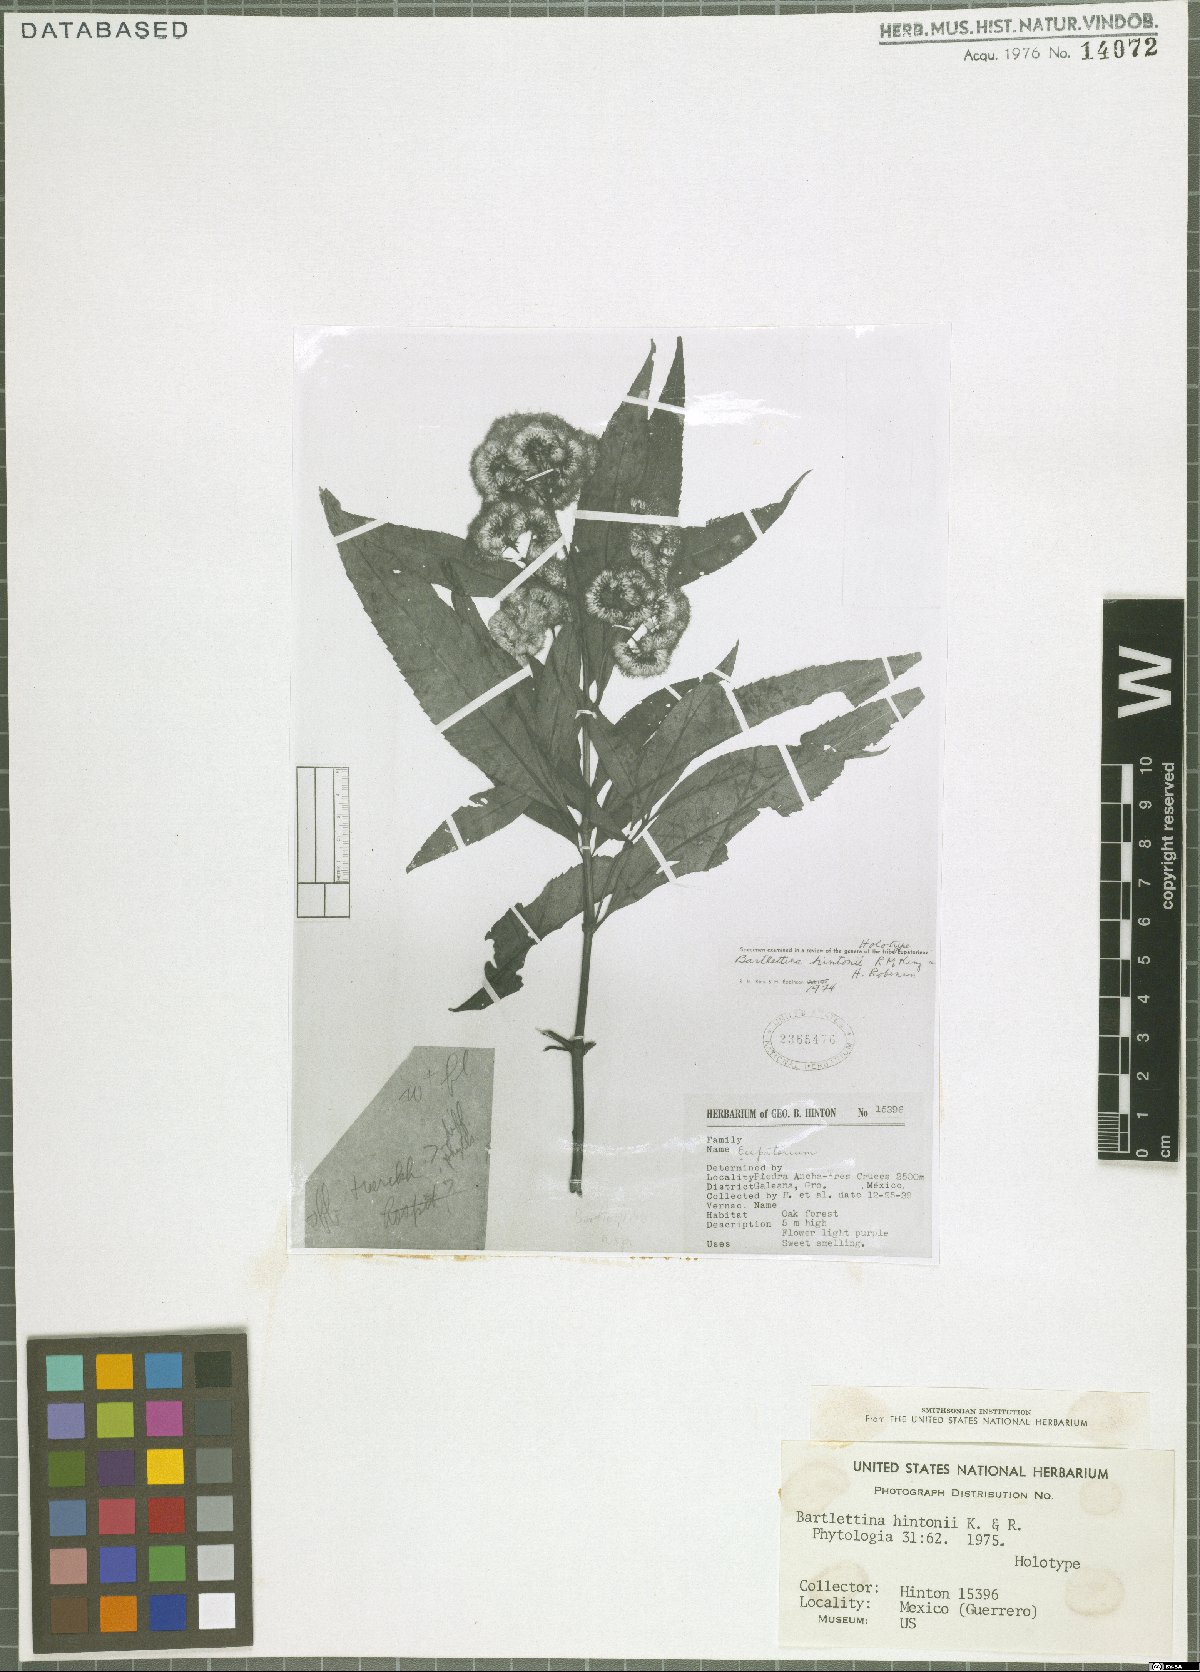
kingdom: Plantae
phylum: Tracheophyta
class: Magnoliopsida
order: Asterales
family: Asteraceae
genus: Bartlettina
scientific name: Bartlettina hintonii
